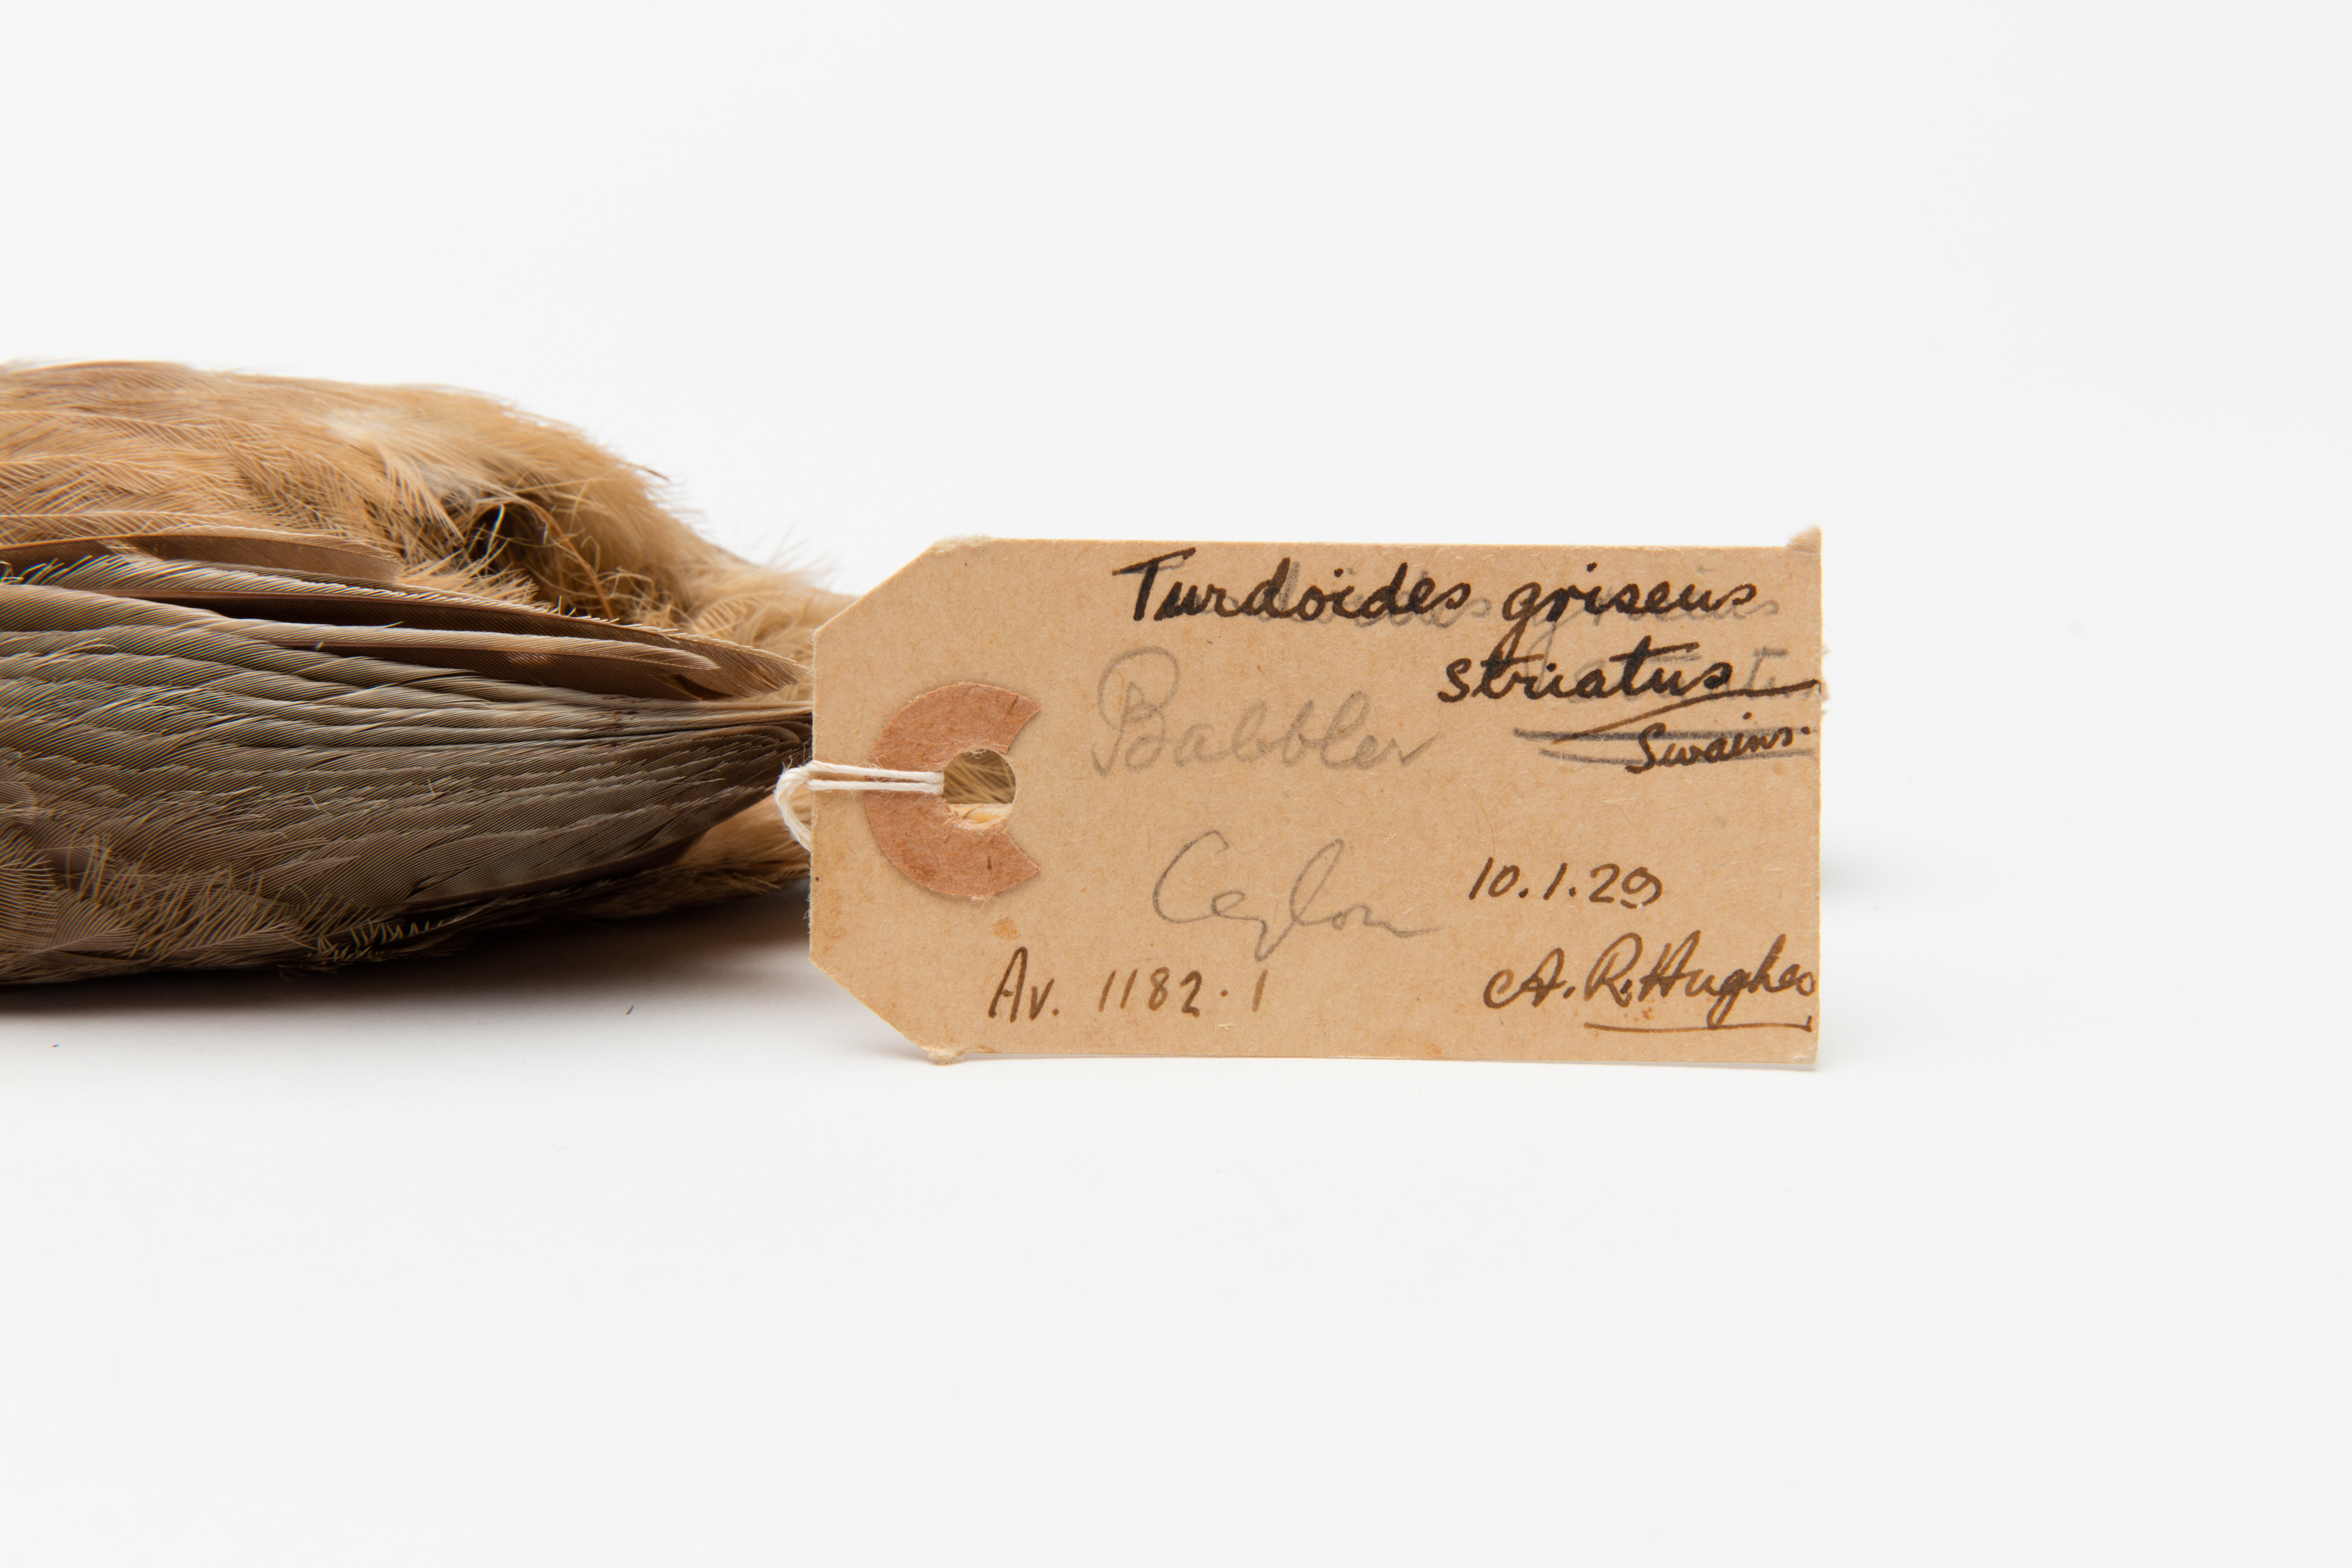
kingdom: Animalia
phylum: Chordata
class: Aves
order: Passeriformes
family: Leiothrichidae
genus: Turdoides
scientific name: Turdoides striata
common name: Jungle babbler
